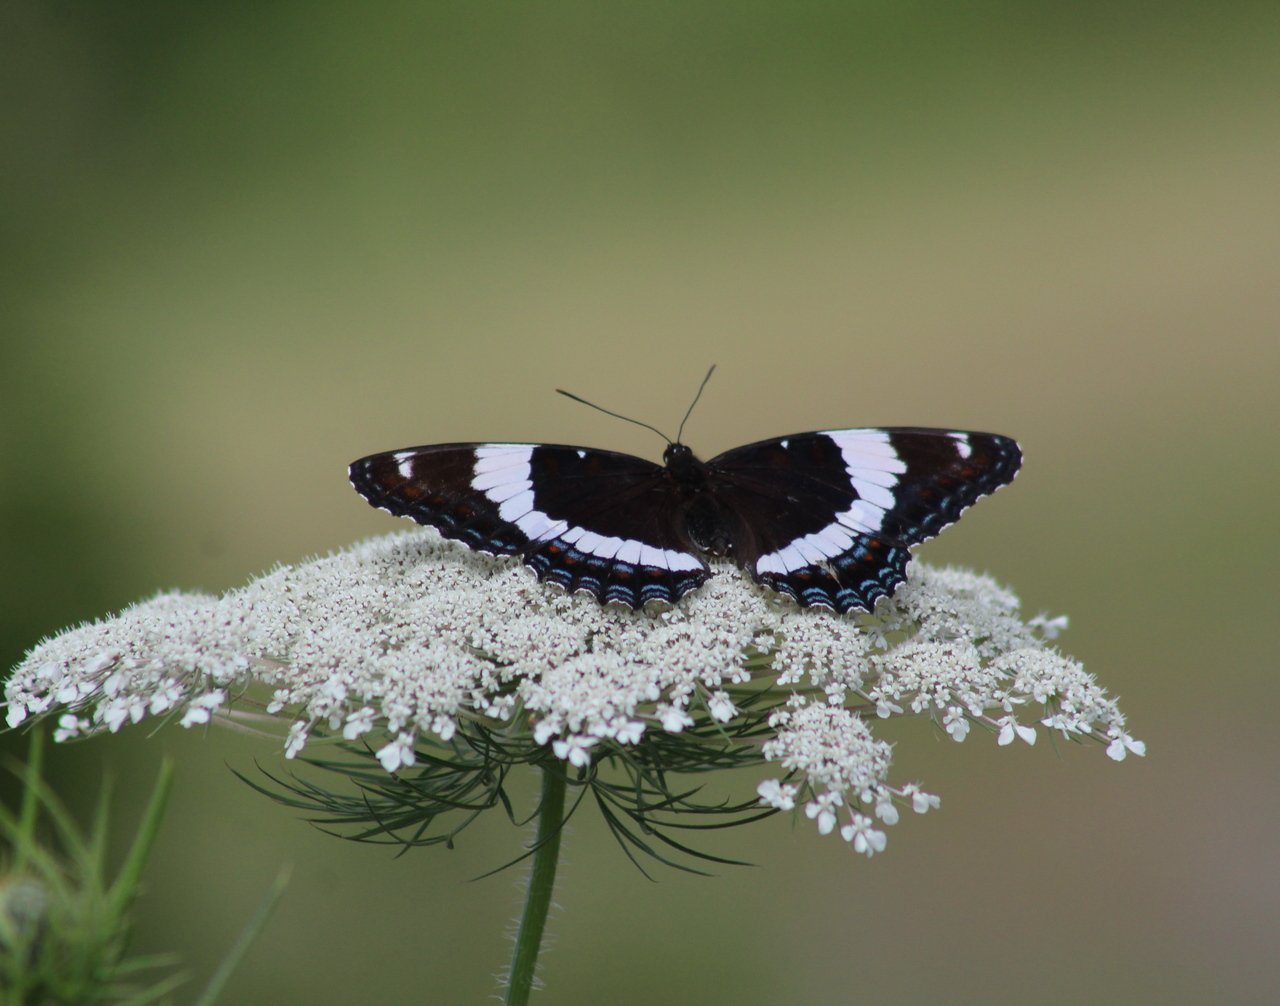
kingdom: Animalia
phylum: Arthropoda
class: Insecta
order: Lepidoptera
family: Nymphalidae
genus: Limenitis
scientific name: Limenitis arthemis
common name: Red-spotted Admiral
